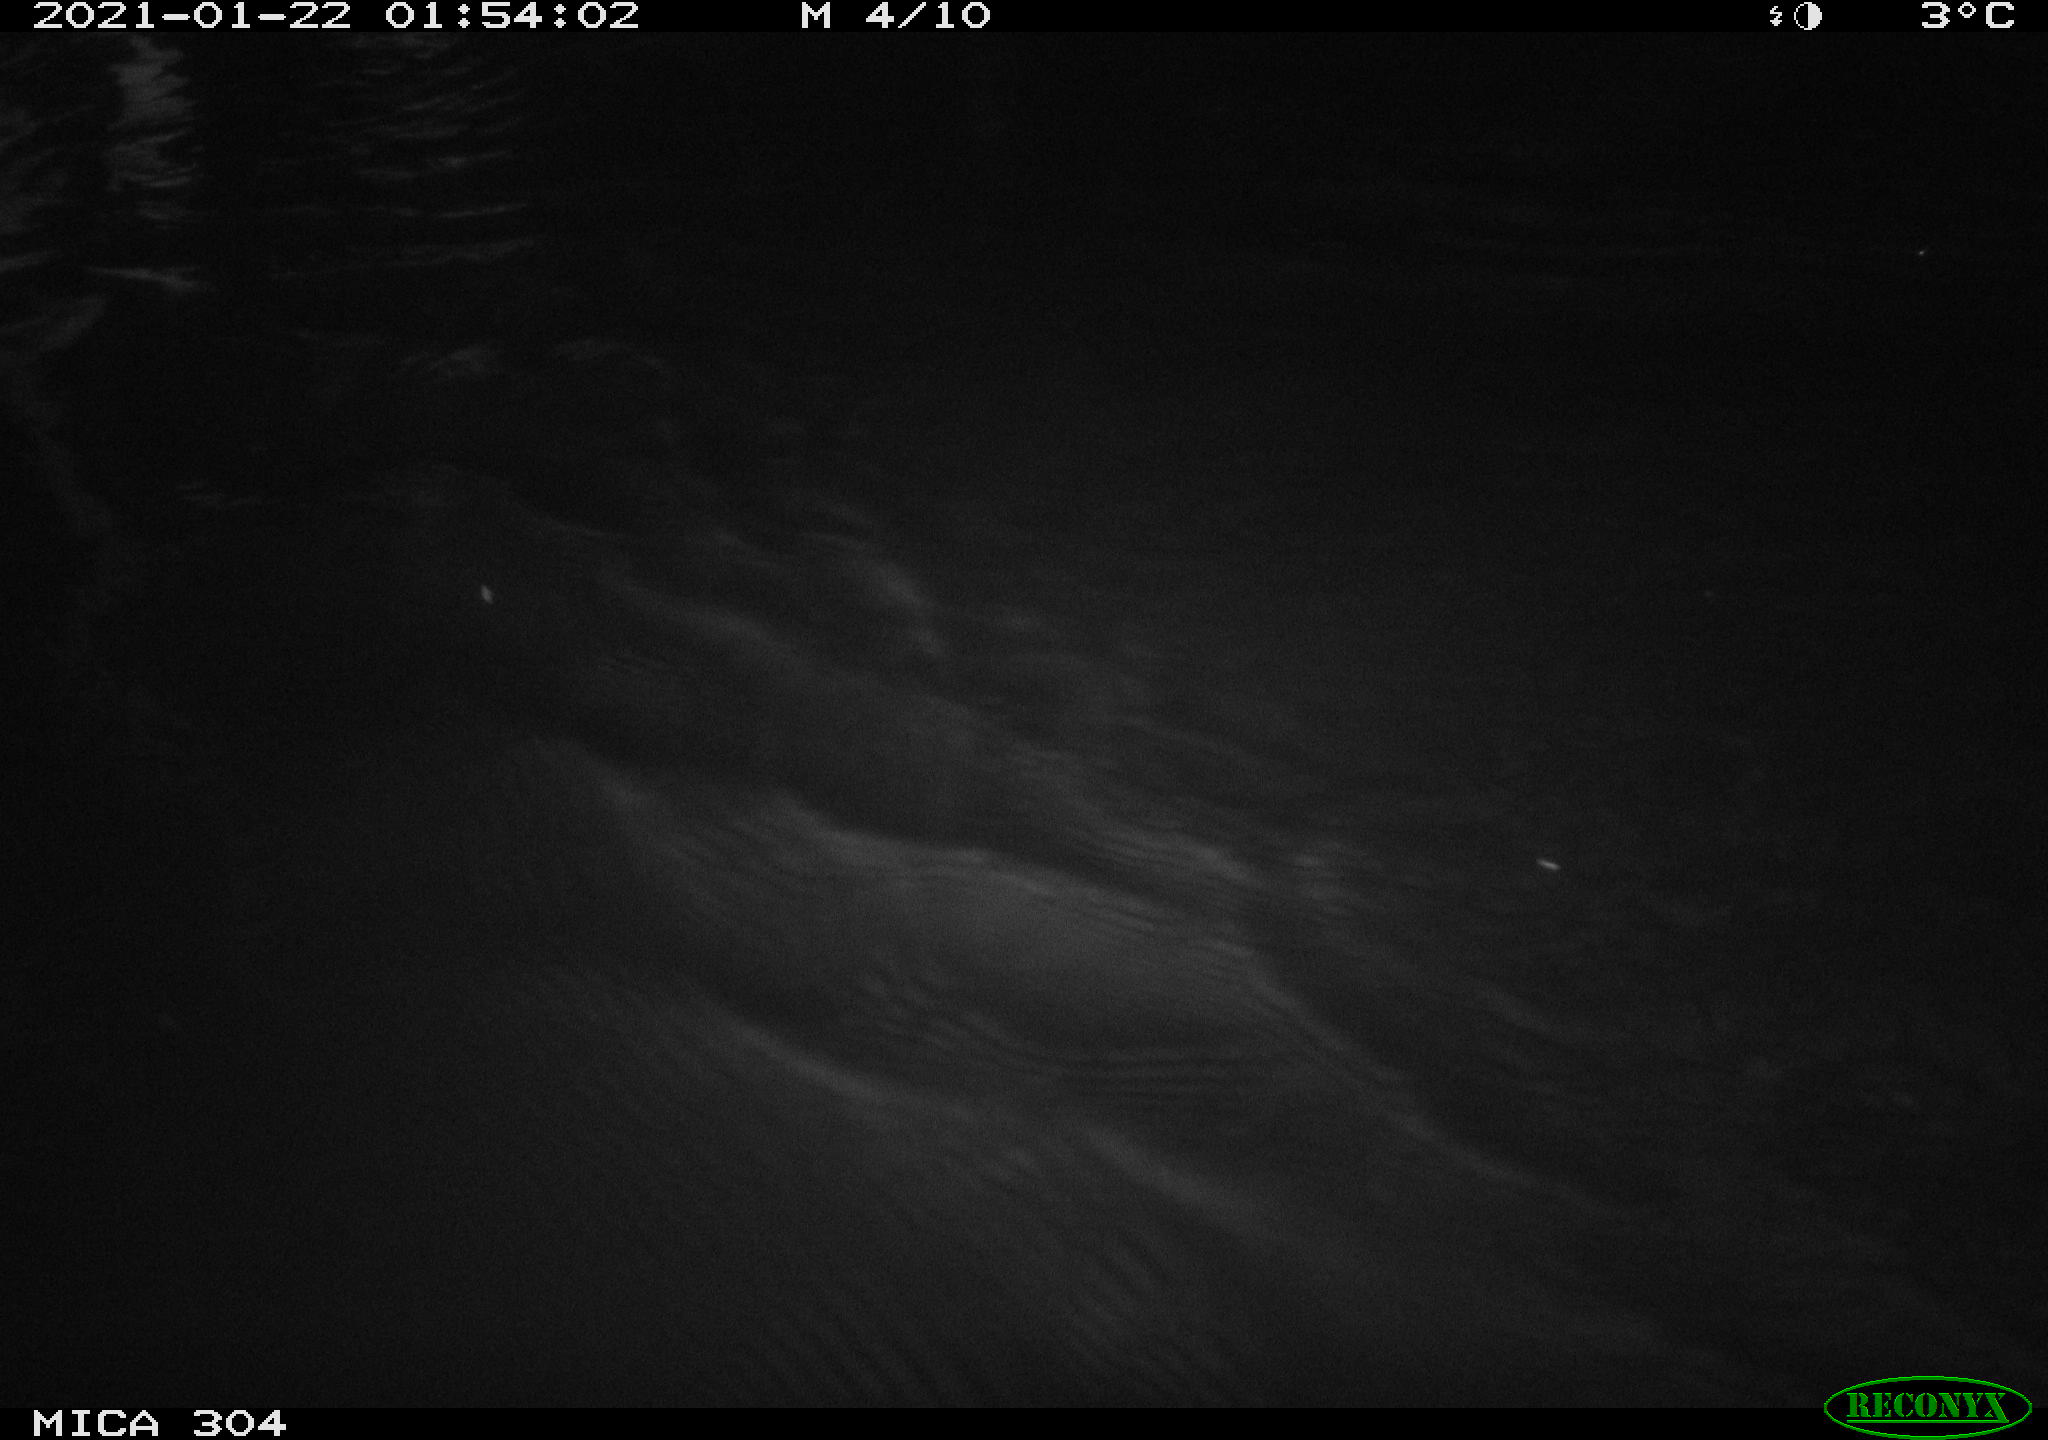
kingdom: Animalia
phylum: Chordata
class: Mammalia
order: Rodentia
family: Cricetidae
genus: Ondatra
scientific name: Ondatra zibethicus
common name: Muskrat
